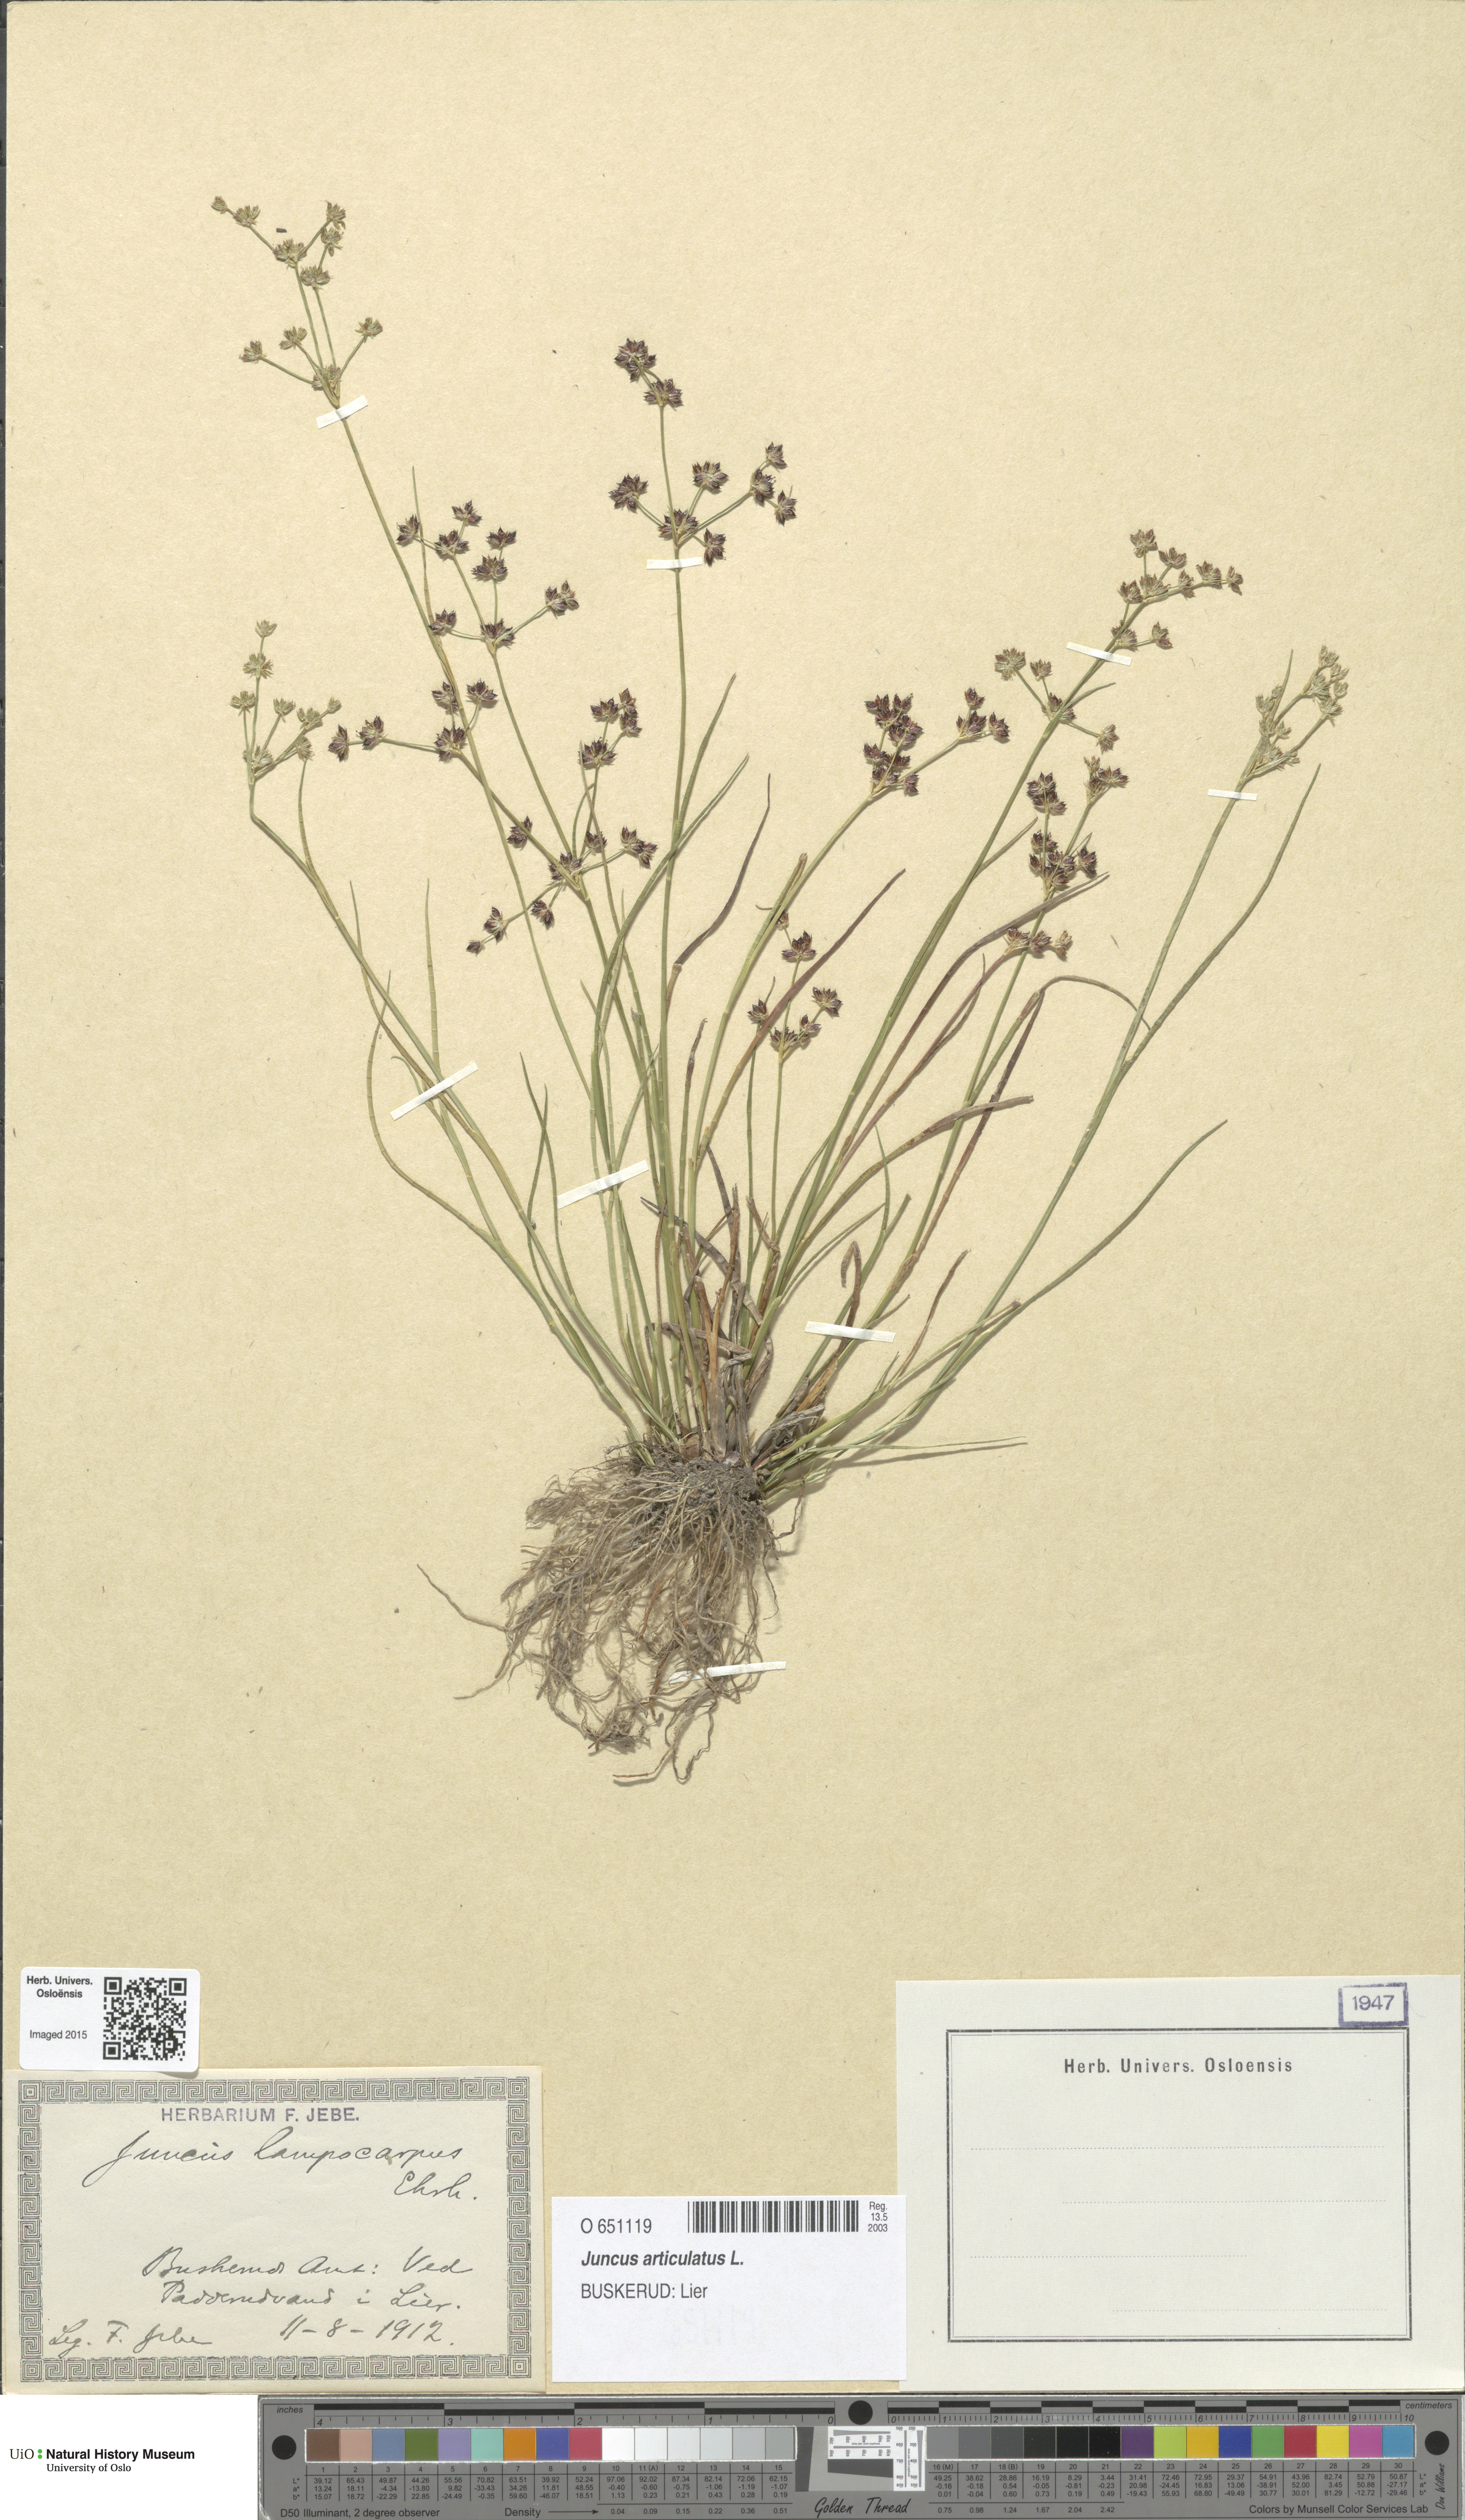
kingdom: Plantae
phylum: Tracheophyta
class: Liliopsida
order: Poales
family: Juncaceae
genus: Juncus
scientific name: Juncus articulatus
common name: Jointed rush
